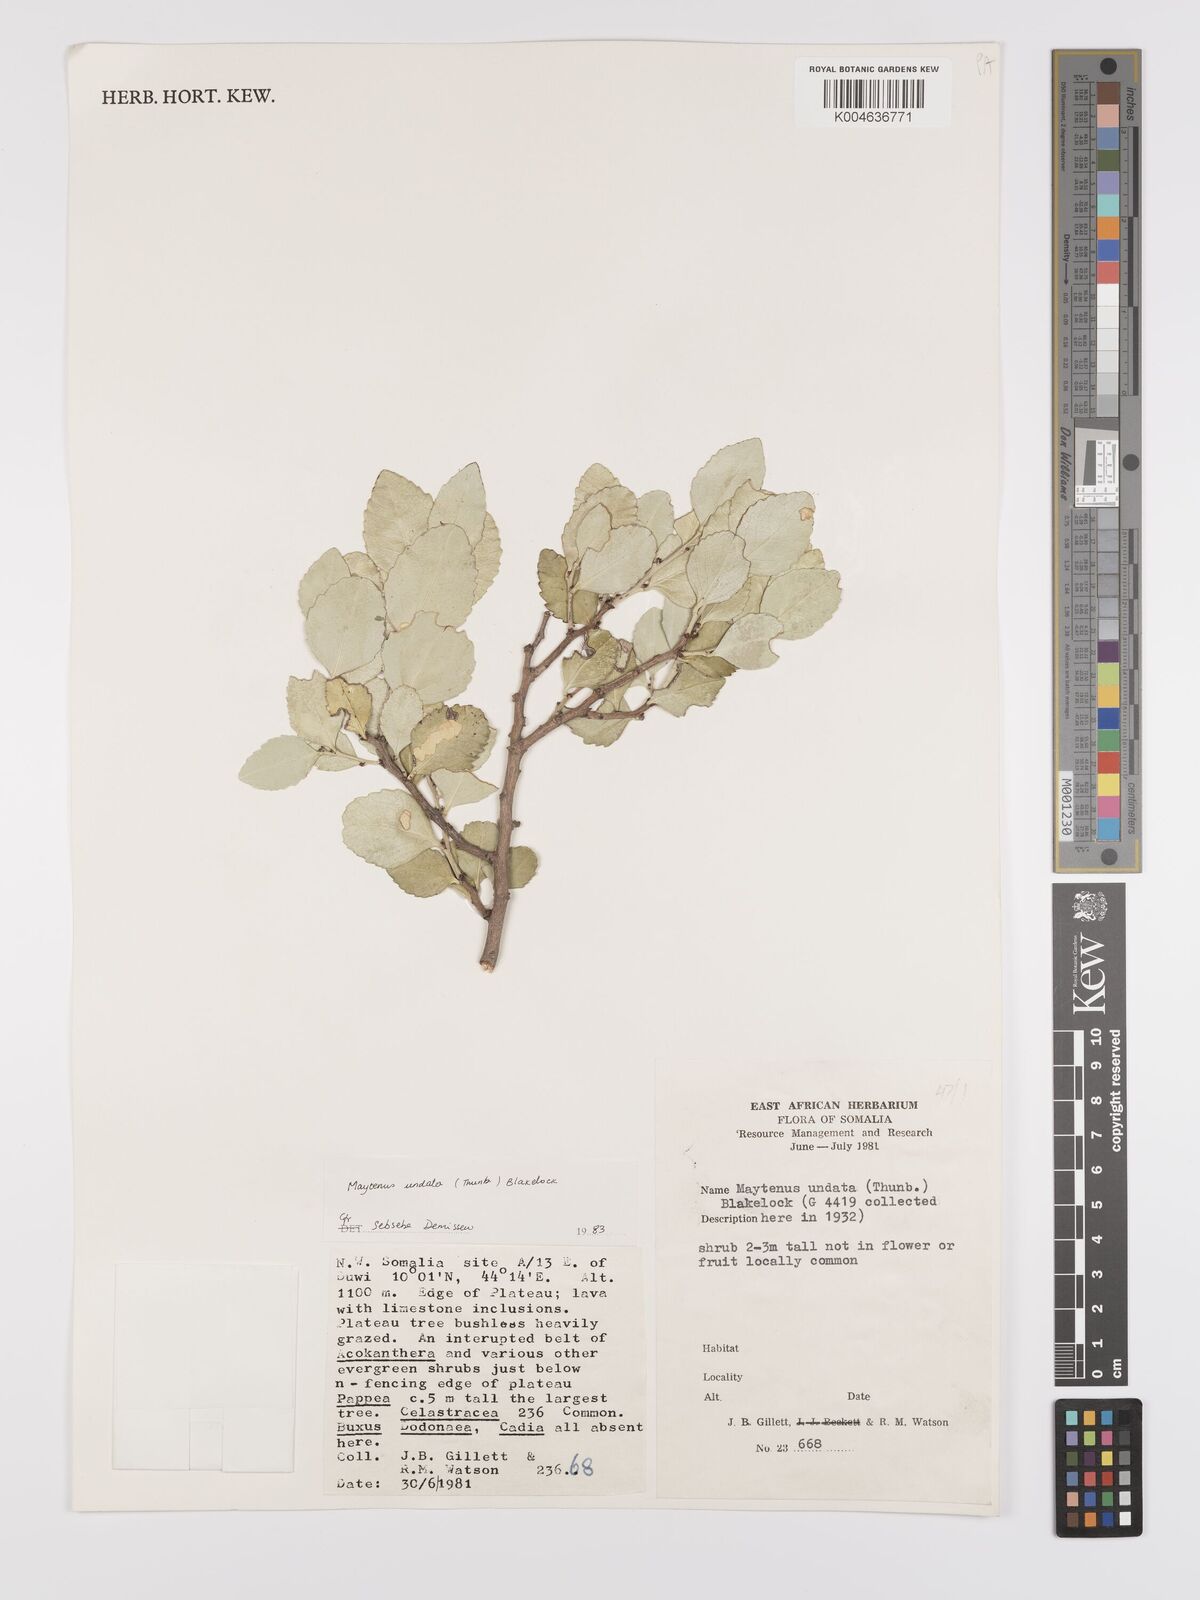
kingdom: Plantae
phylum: Tracheophyta
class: Magnoliopsida
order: Celastrales
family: Celastraceae
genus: Gymnosporia
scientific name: Gymnosporia undata
